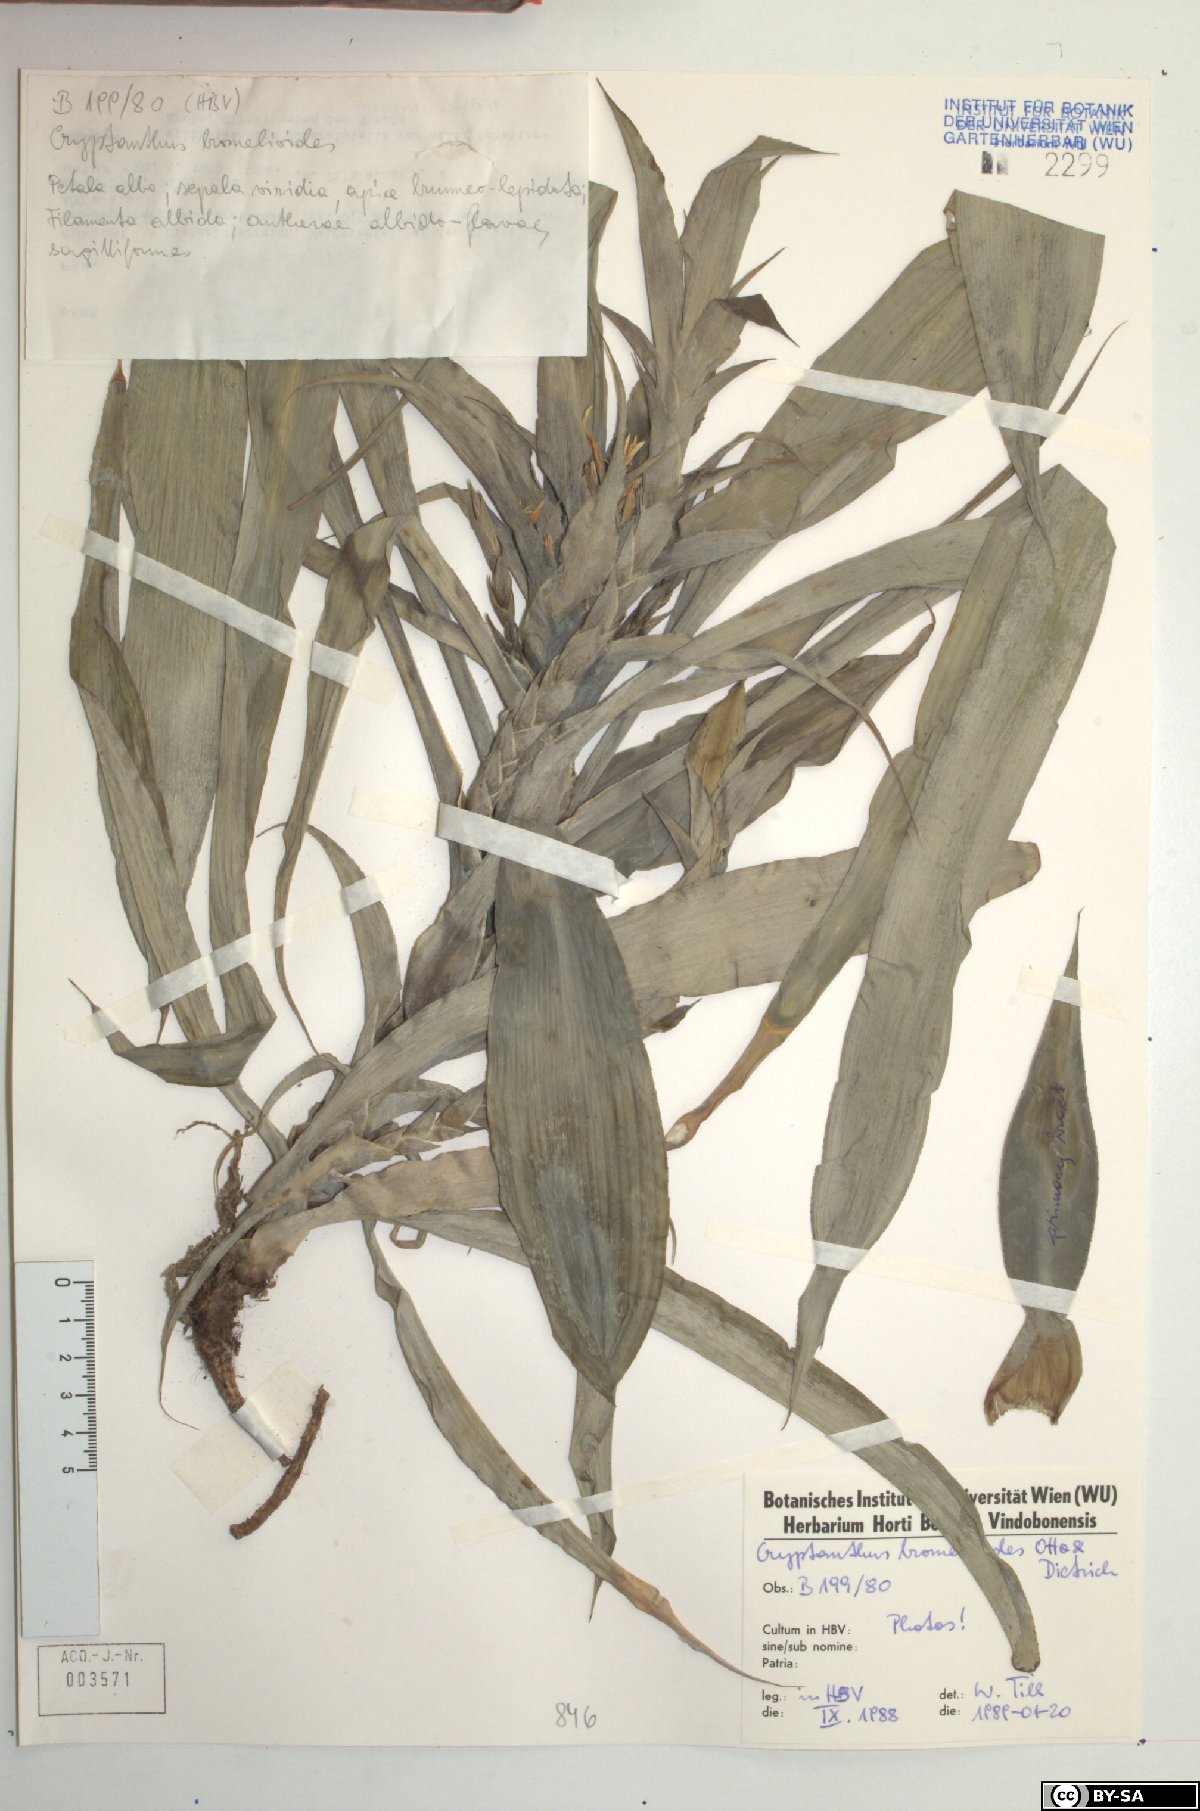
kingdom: Plantae
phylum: Tracheophyta
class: Liliopsida
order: Poales
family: Bromeliaceae
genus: Cryptanthus
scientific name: Cryptanthus bromelioides
